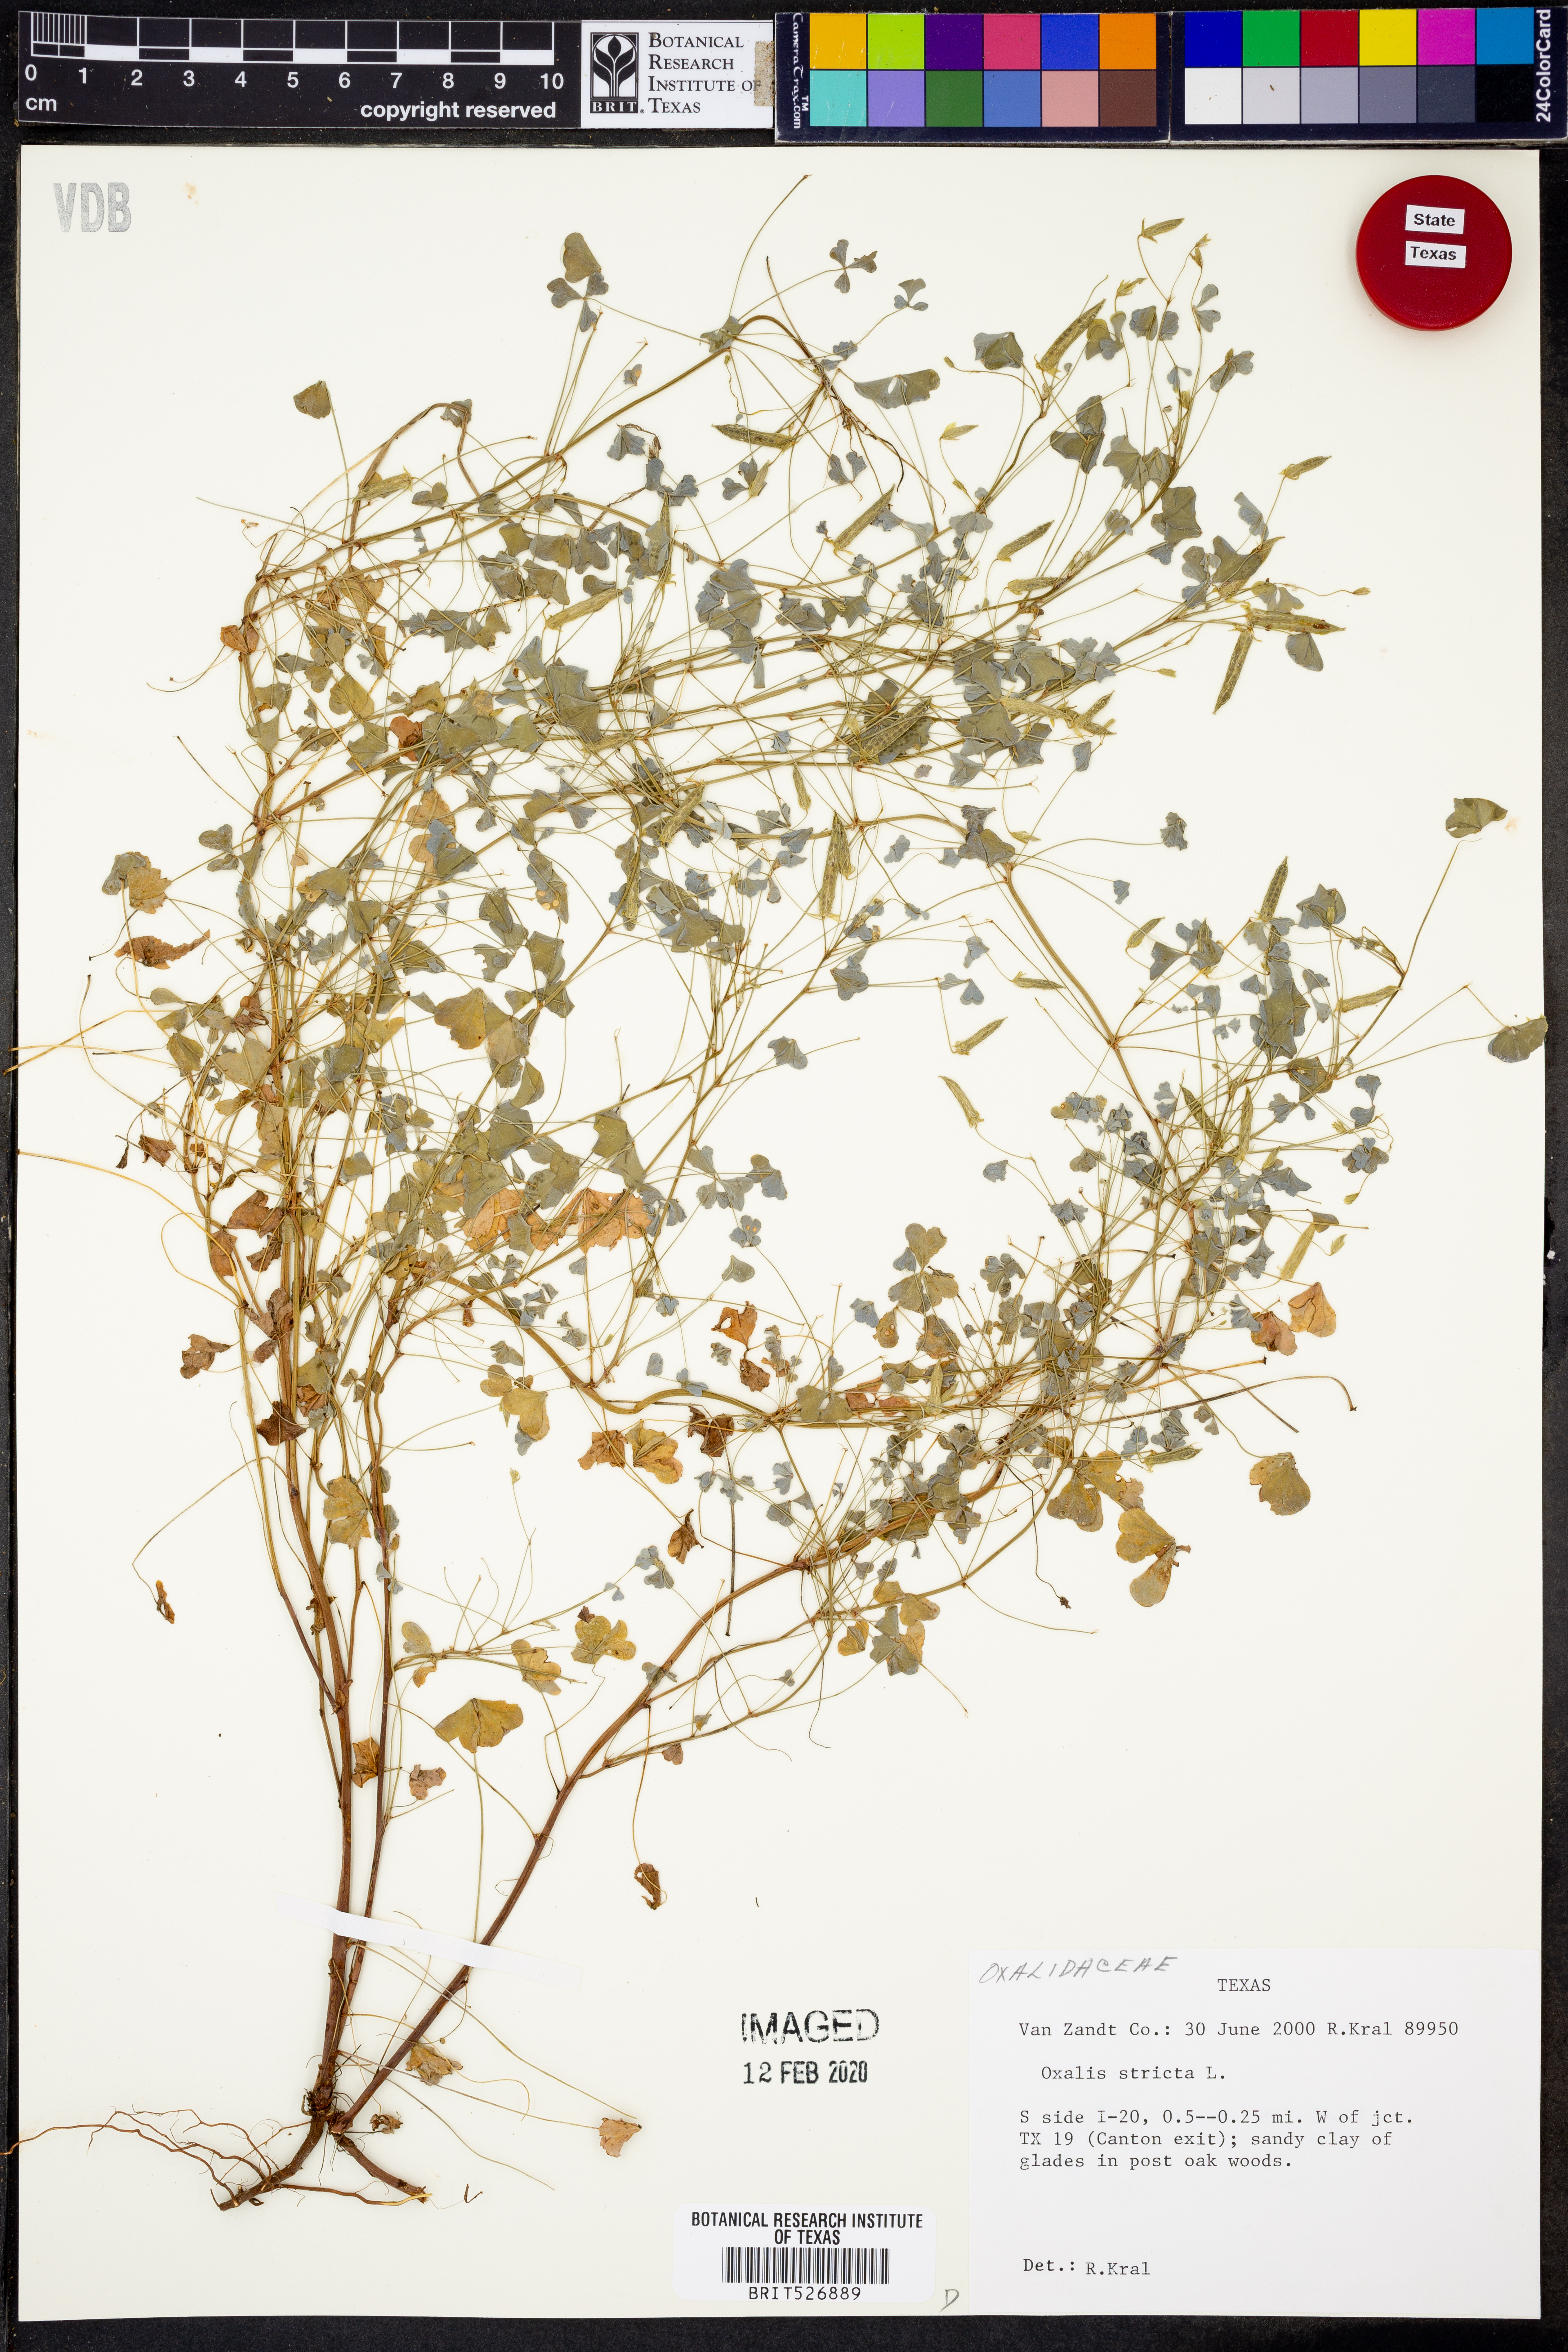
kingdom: Plantae
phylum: Tracheophyta
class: Magnoliopsida
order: Oxalidales
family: Oxalidaceae
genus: Oxalis
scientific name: Oxalis stricta
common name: Upright yellow-sorrel
